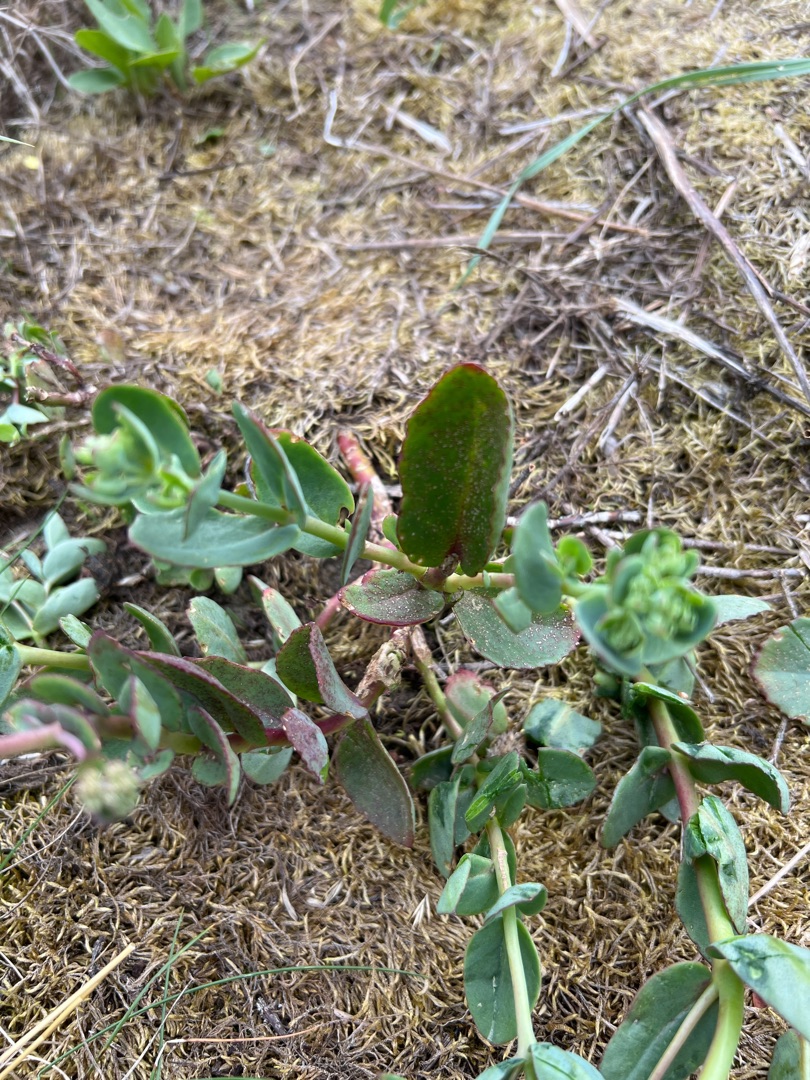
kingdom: Plantae
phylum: Tracheophyta
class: Magnoliopsida
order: Saxifragales
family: Crassulaceae
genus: Hylotelephium
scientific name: Hylotelephium maximum
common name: Almindelig sankthansurt
